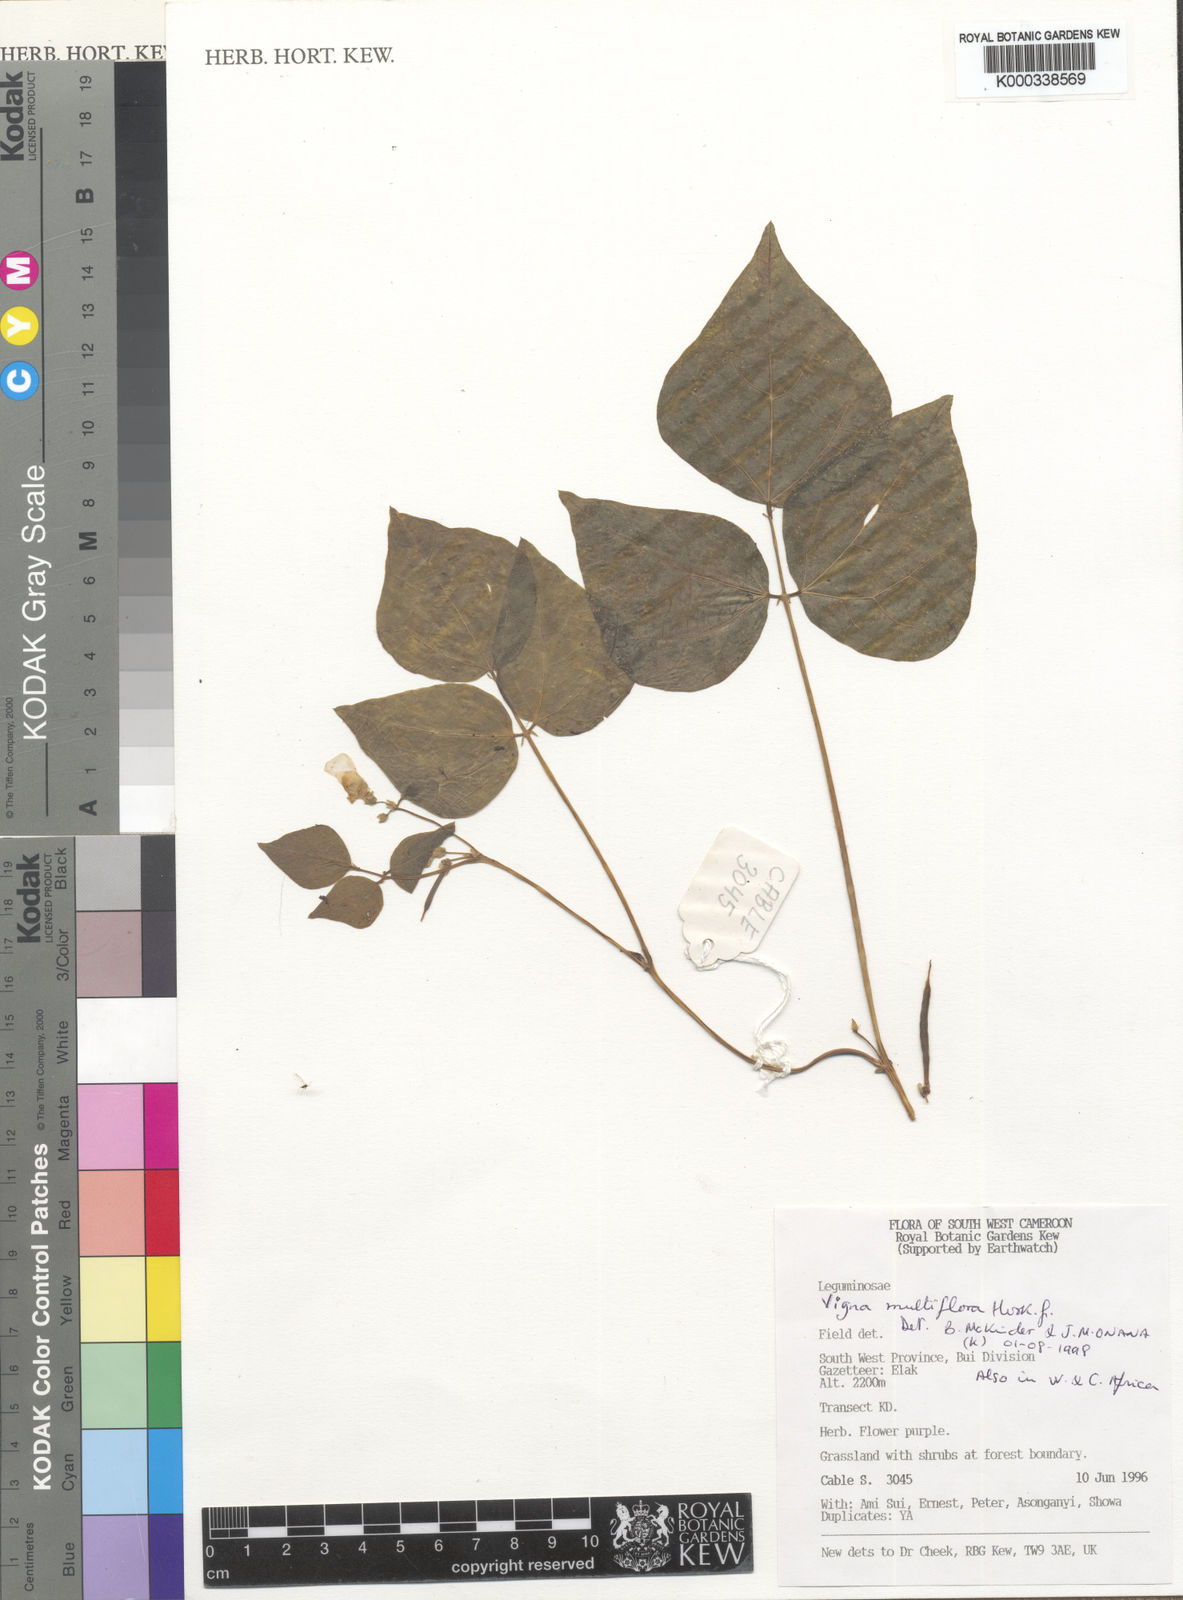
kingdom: Plantae
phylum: Tracheophyta
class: Magnoliopsida
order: Fabales
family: Fabaceae
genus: Vigna
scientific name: Vigna gracilis
